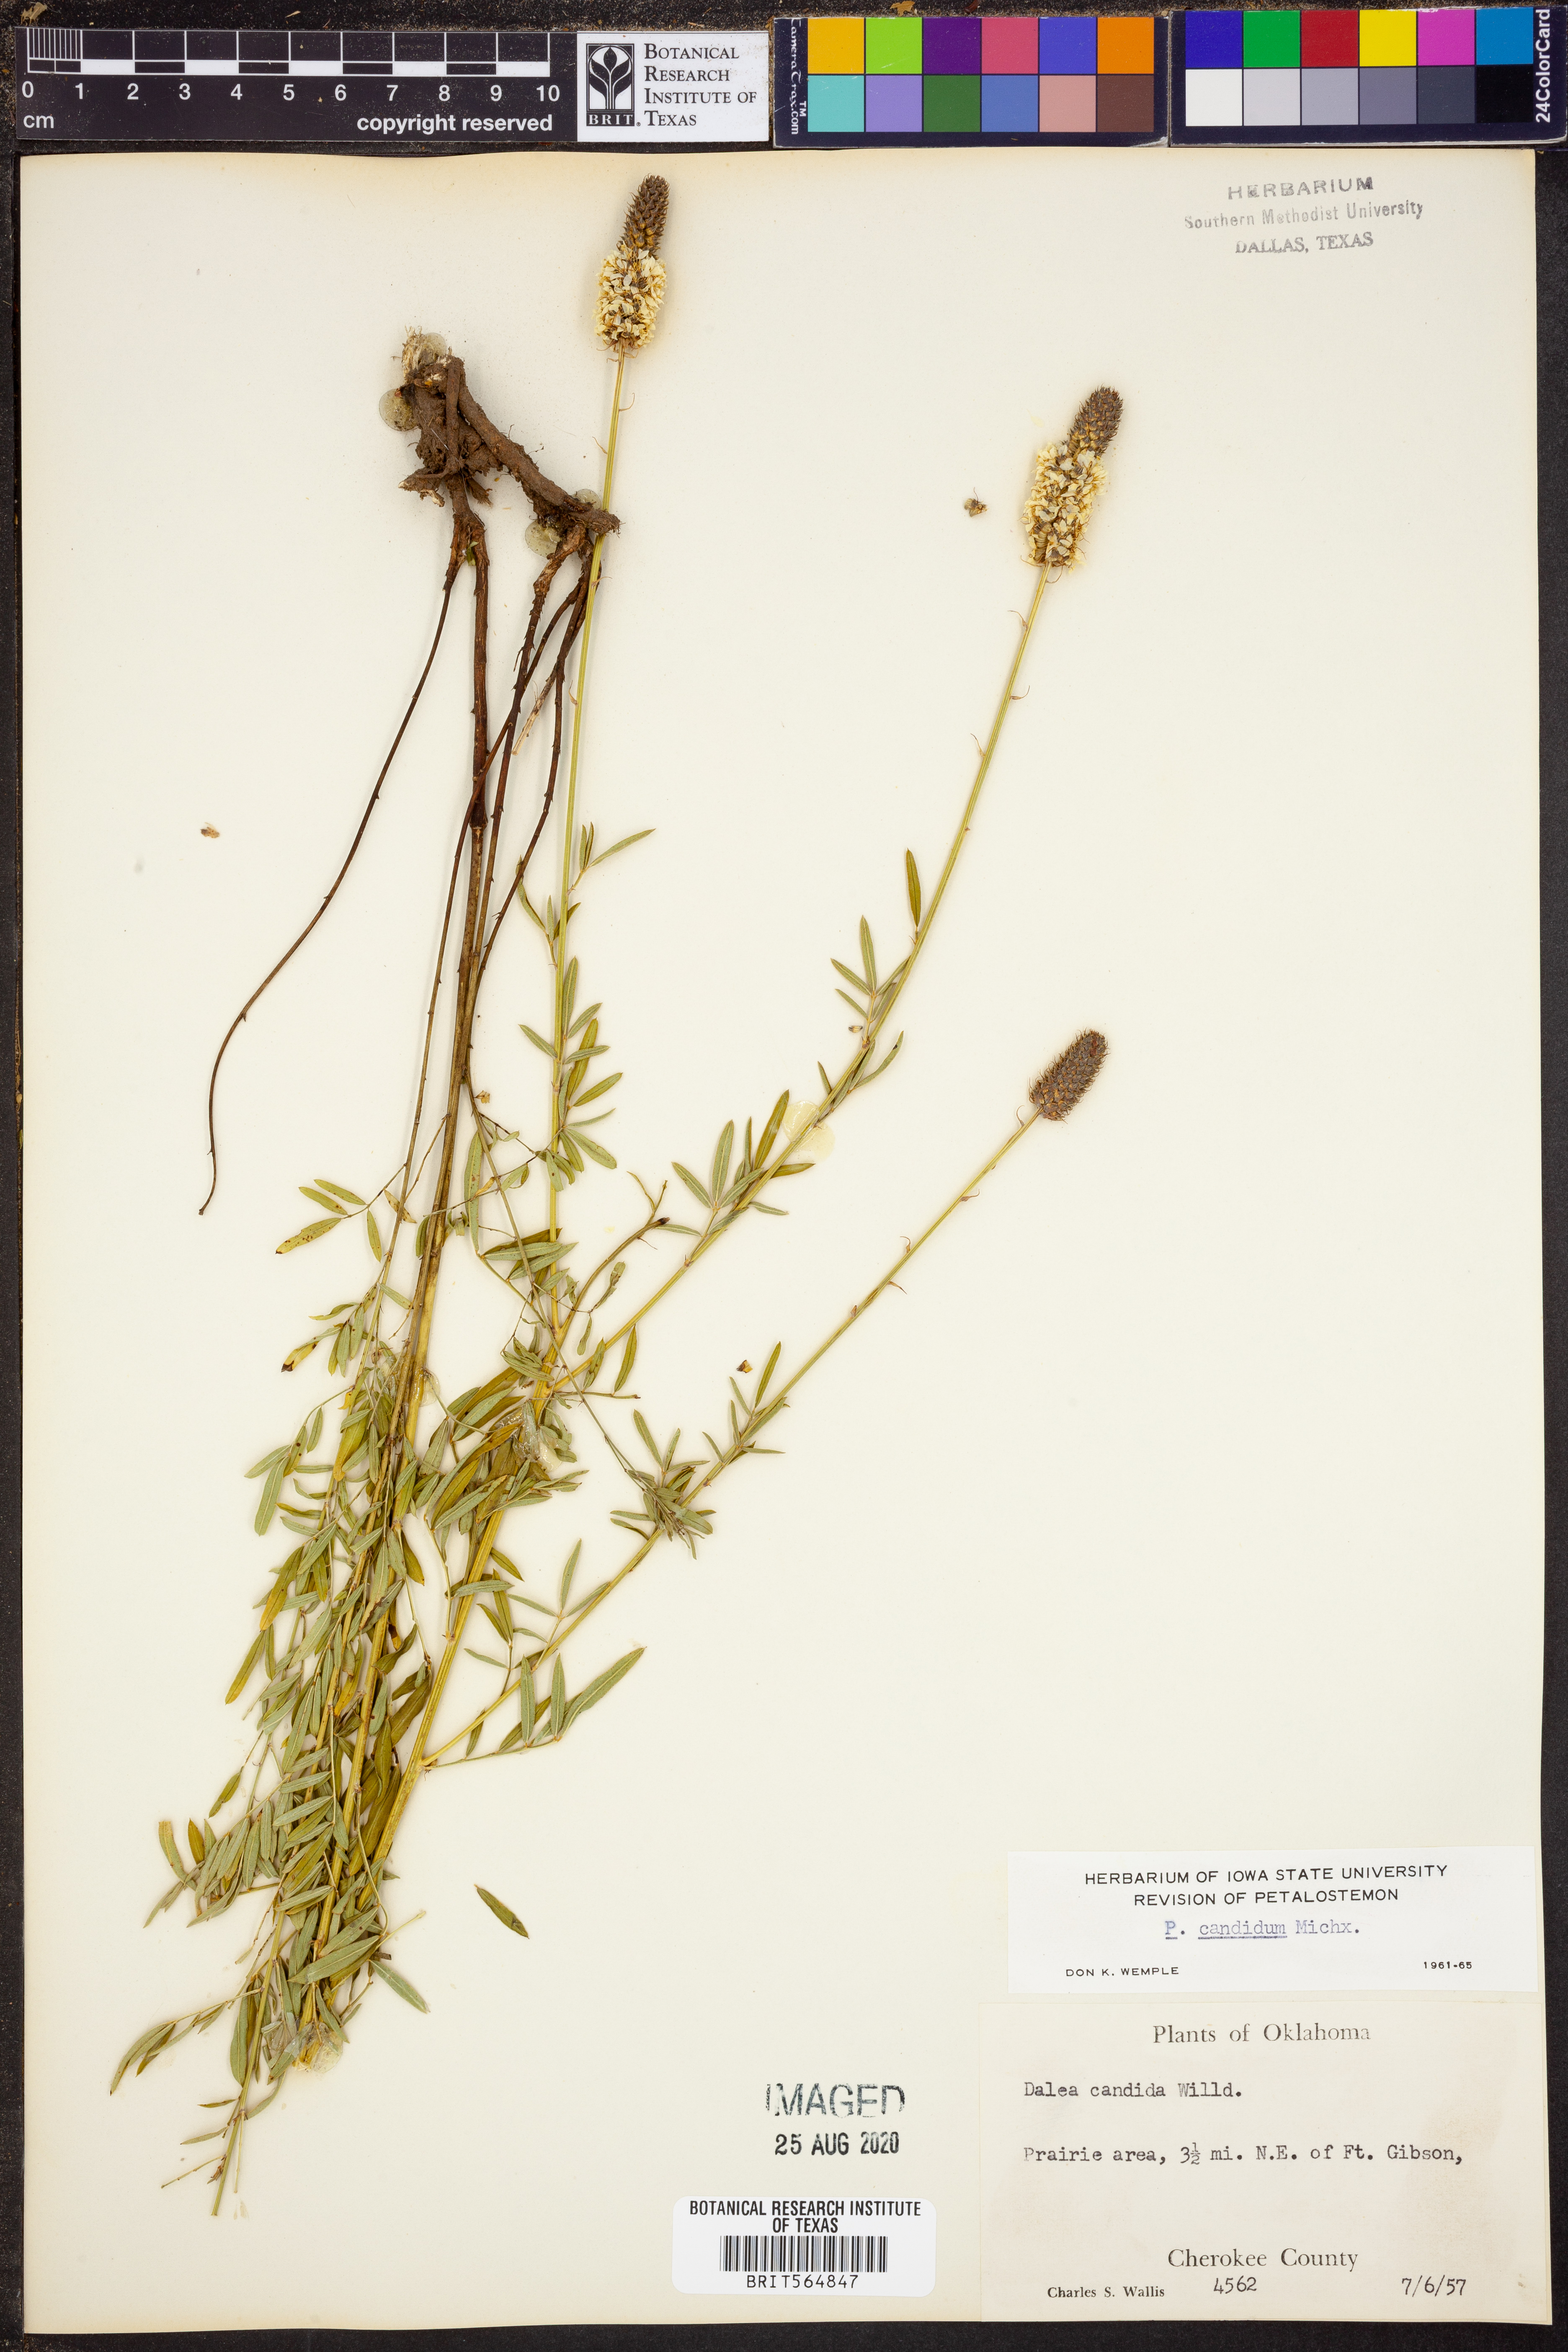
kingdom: Plantae
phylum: Tracheophyta
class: Magnoliopsida
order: Fabales
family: Fabaceae
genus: Dalea
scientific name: Dalea candida
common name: White prairie-clover
